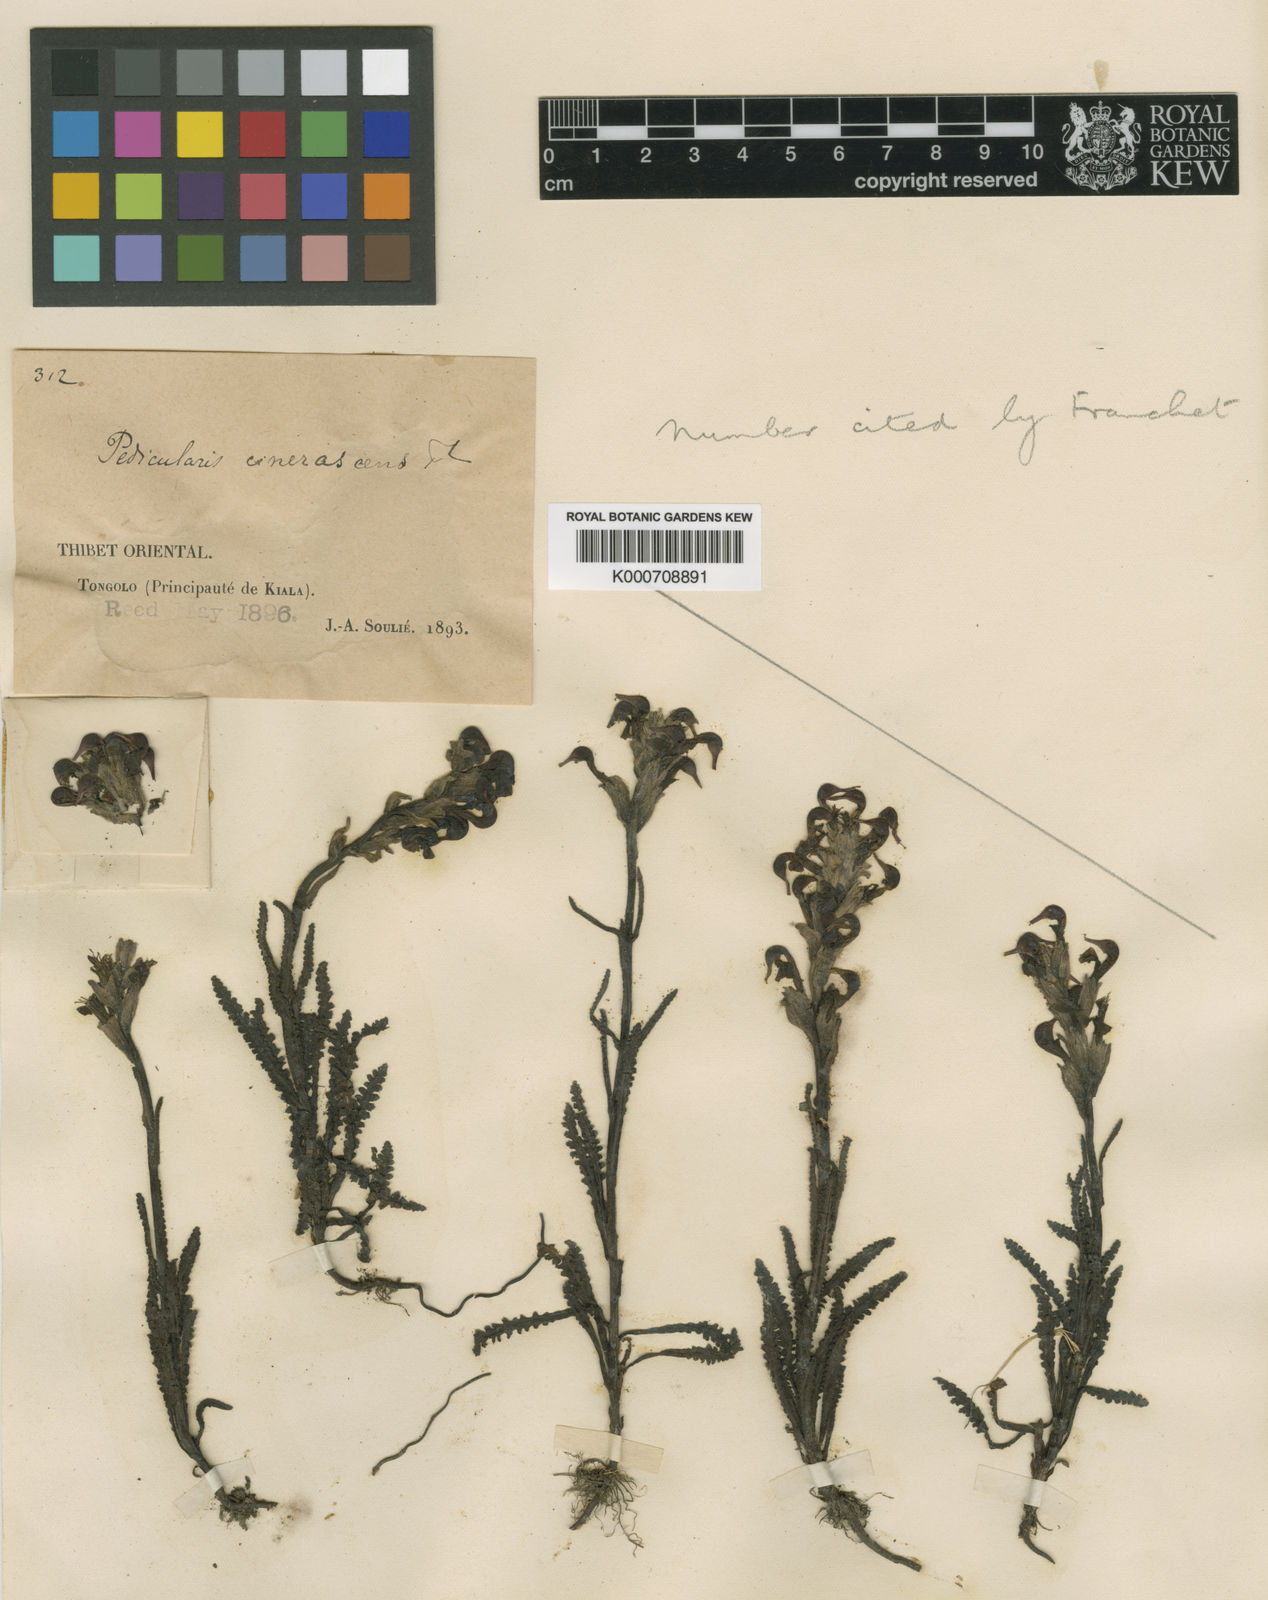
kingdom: Plantae
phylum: Tracheophyta
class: Magnoliopsida
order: Lamiales
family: Orobanchaceae
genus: Pedicularis
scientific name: Pedicularis cinerascens
